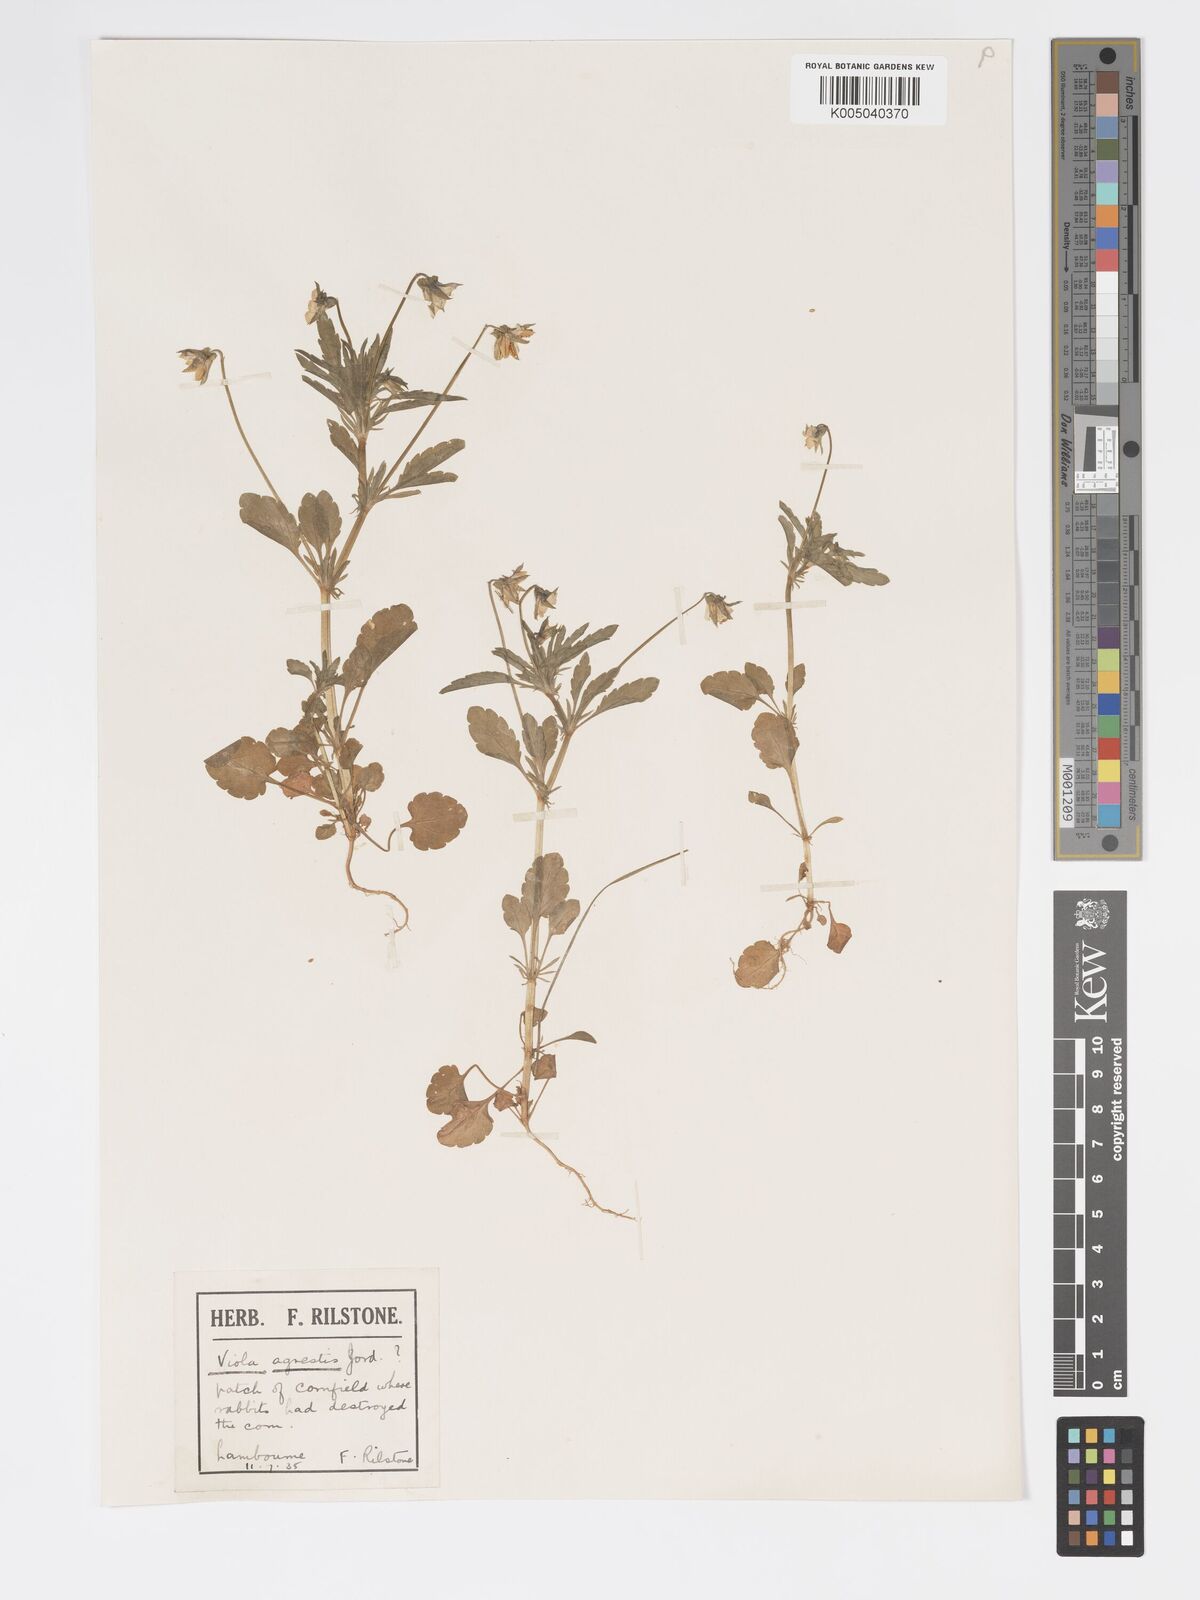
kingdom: Plantae
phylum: Tracheophyta
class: Magnoliopsida
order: Malpighiales
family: Violaceae
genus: Viola
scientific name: Viola arvensis
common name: Field pansy
